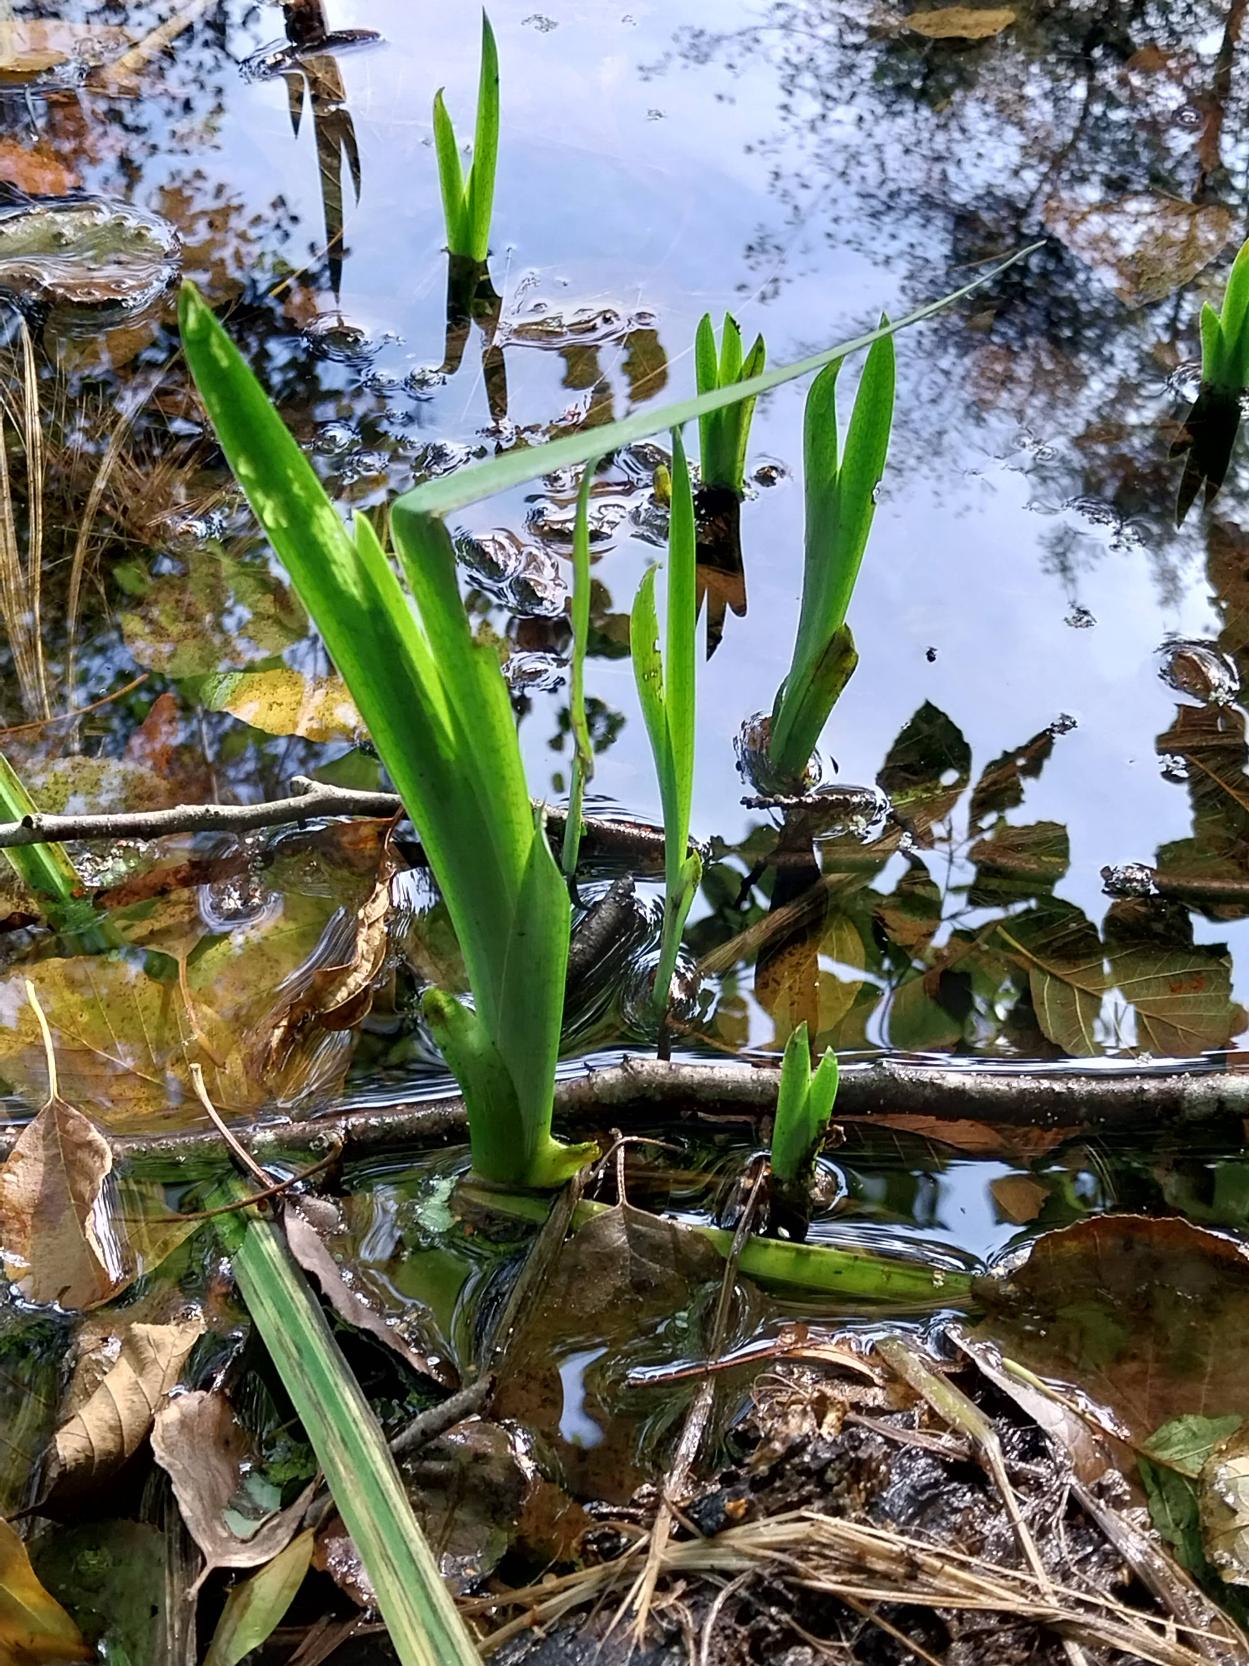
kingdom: Plantae
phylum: Tracheophyta
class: Liliopsida
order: Asparagales
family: Iridaceae
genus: Iris
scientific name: Iris pseudacorus
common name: Gul iris
